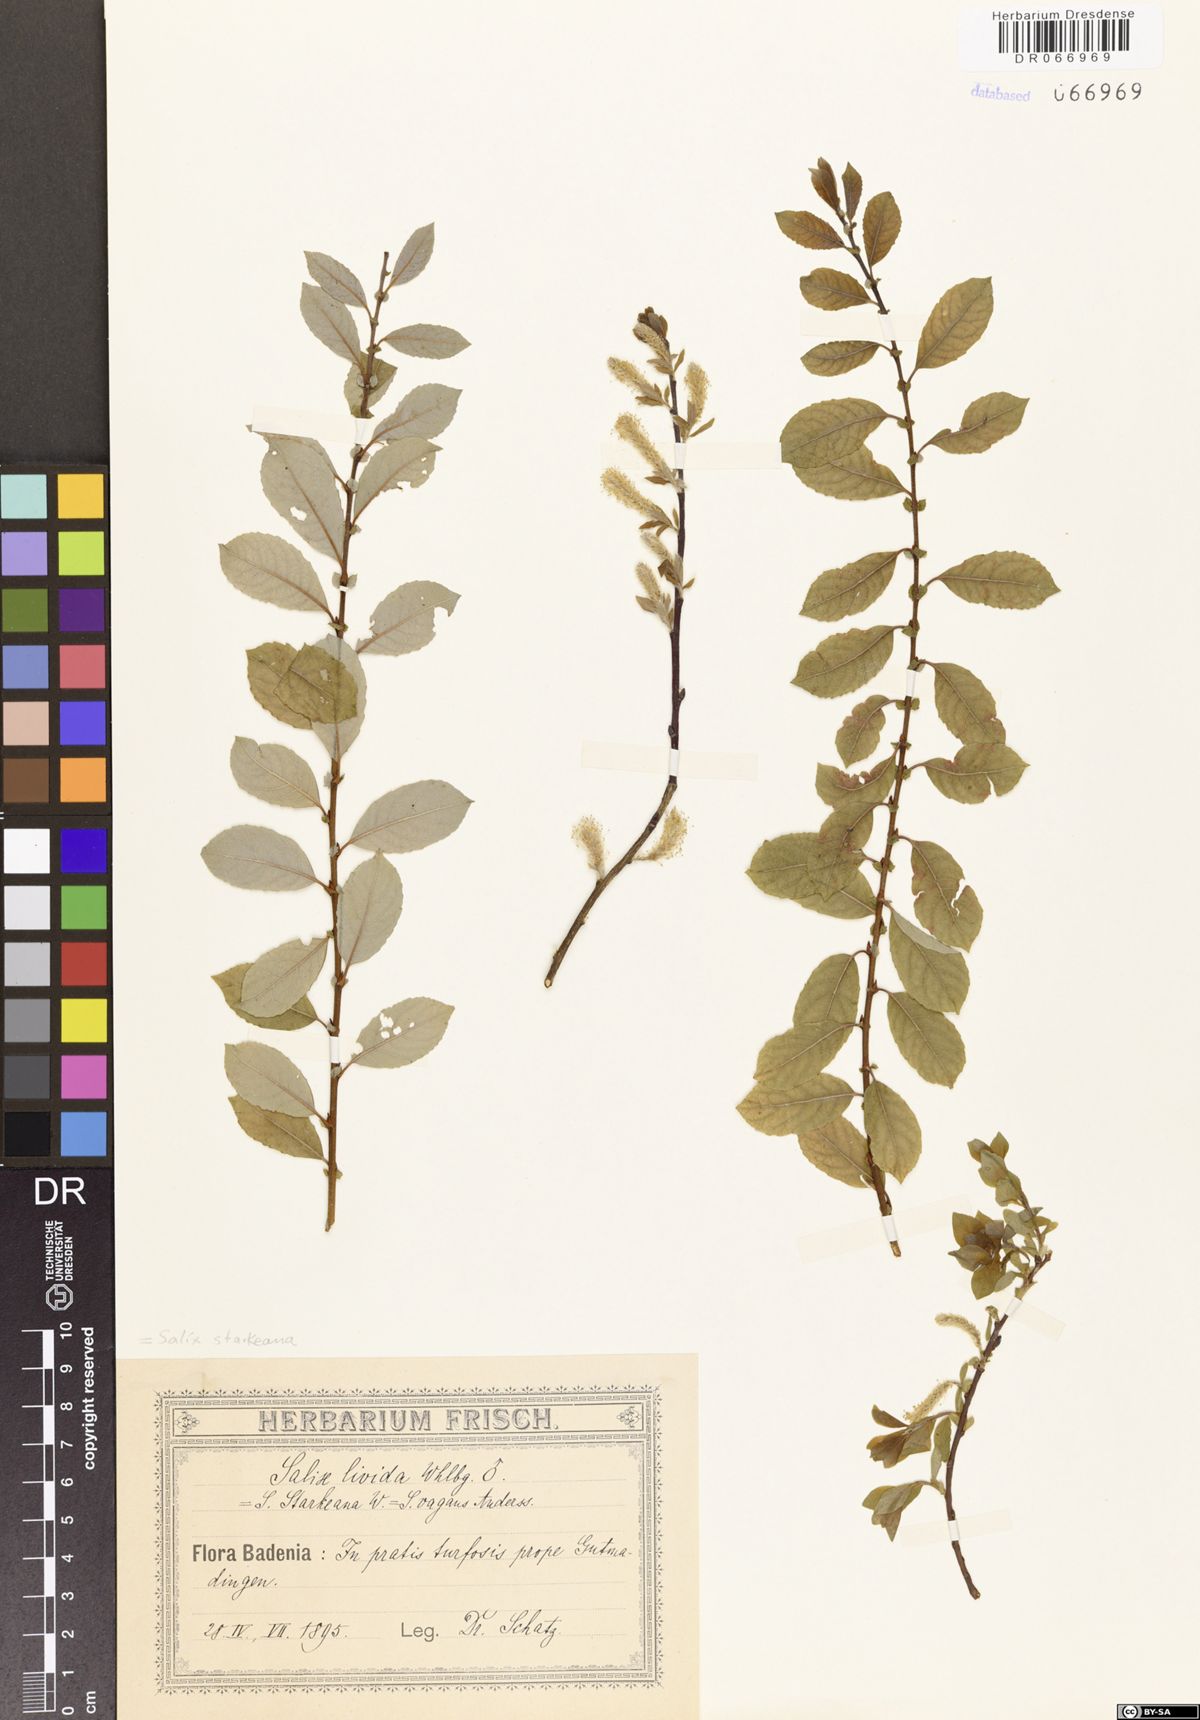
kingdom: Plantae
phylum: Tracheophyta
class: Magnoliopsida
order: Malpighiales
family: Salicaceae
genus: Salix
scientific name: Salix starkeana
